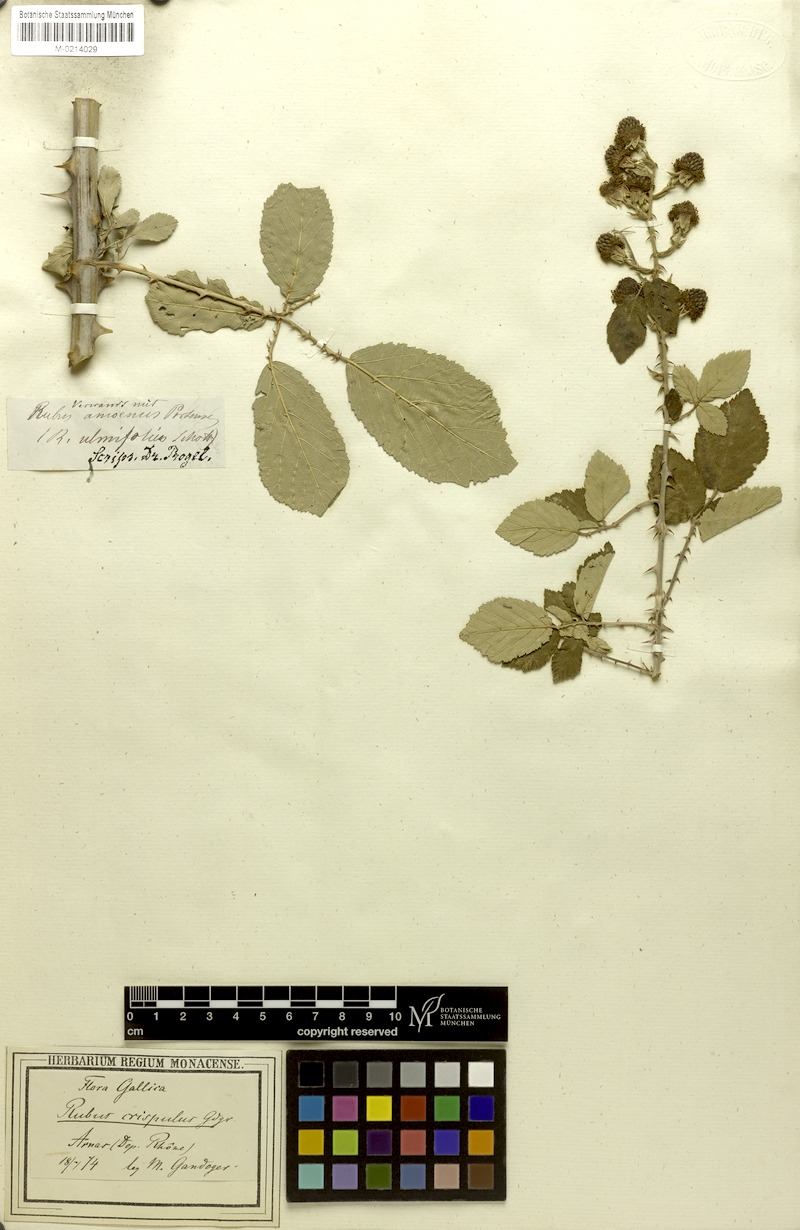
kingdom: Plantae
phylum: Tracheophyta
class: Magnoliopsida
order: Rosales
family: Rosaceae
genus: Rubus
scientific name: Rubus ulmifolius
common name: Elmleaf blackberry
